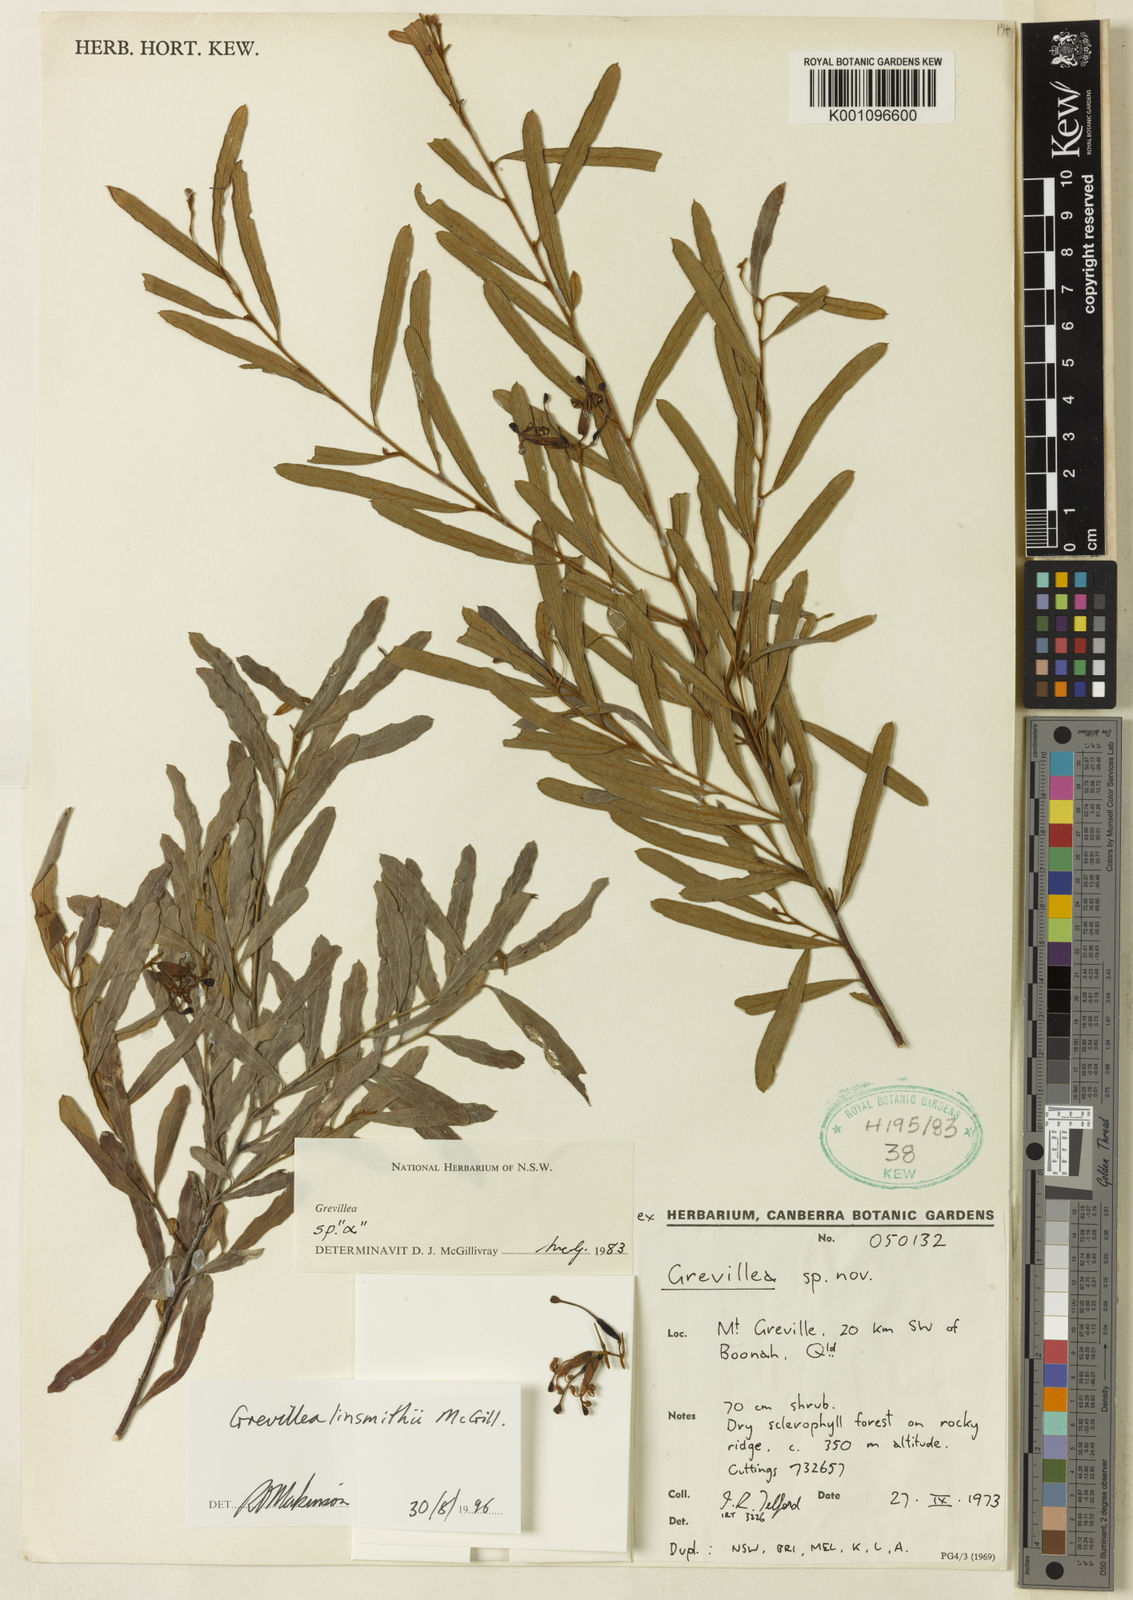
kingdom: Plantae
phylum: Tracheophyta
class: Magnoliopsida
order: Proteales
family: Proteaceae
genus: Grevillea
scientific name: Grevillea linsmithii
